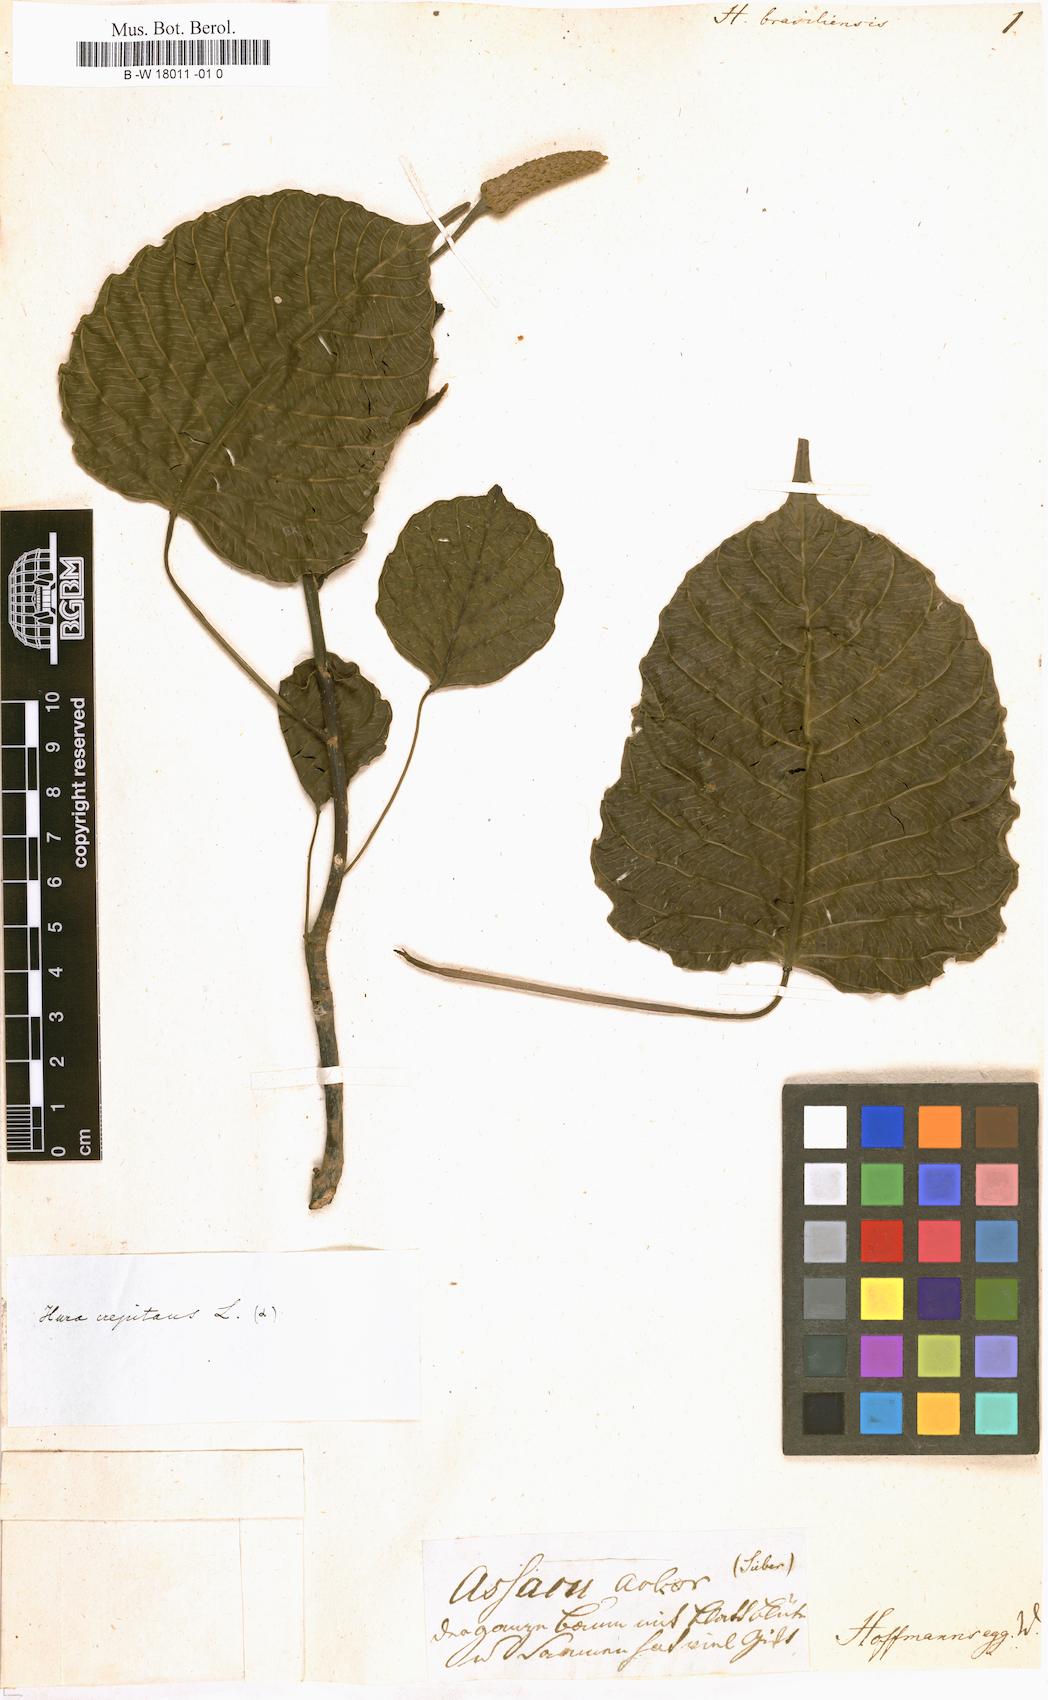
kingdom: Plantae
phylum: Tracheophyta
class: Magnoliopsida
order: Malpighiales
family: Euphorbiaceae
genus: Hura
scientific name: Hura crepitans
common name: Sandboxtree
